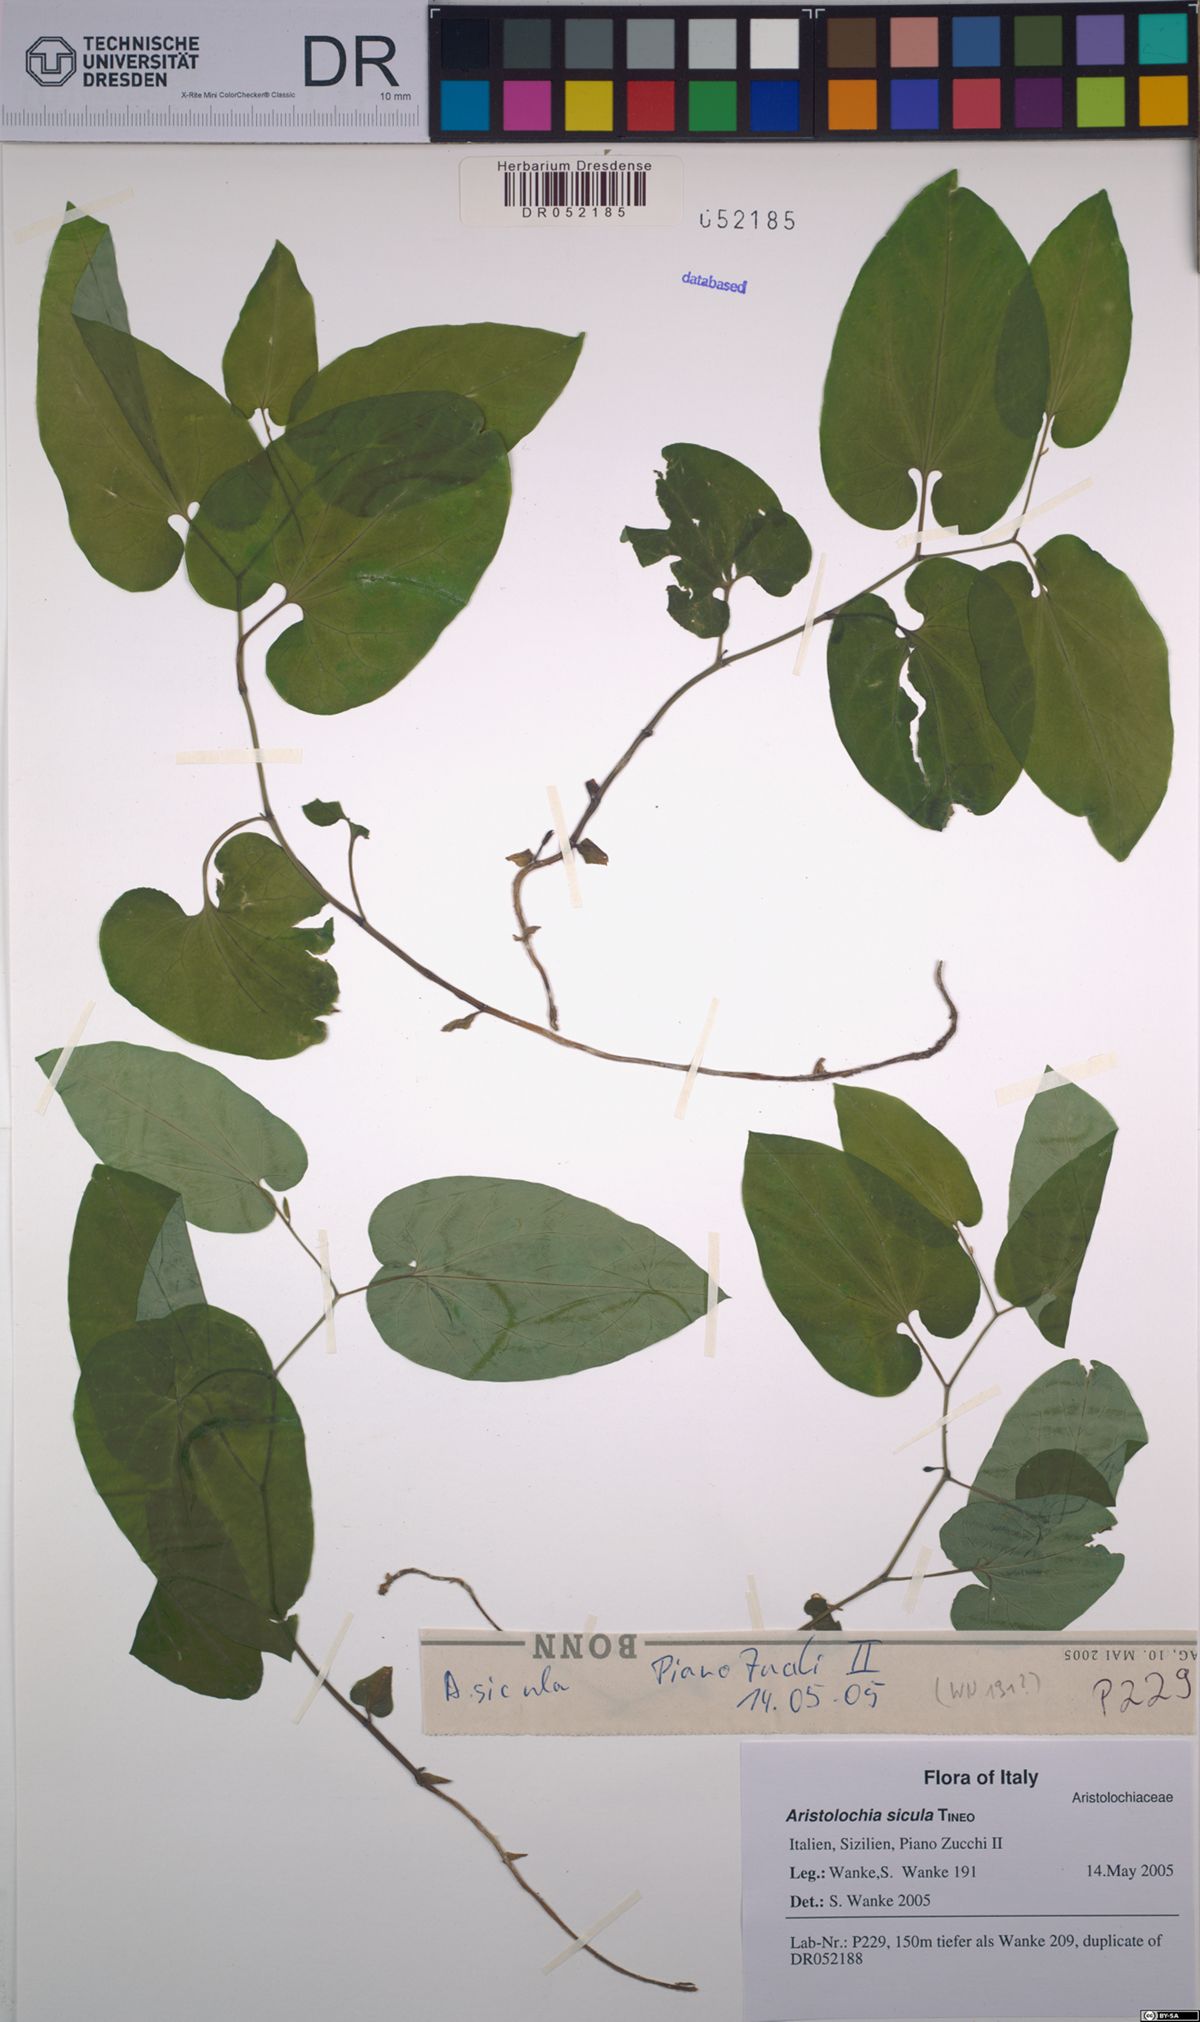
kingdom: Plantae
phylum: Tracheophyta
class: Magnoliopsida
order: Piperales
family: Aristolochiaceae
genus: Aristolochia
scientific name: Aristolochia sicula
